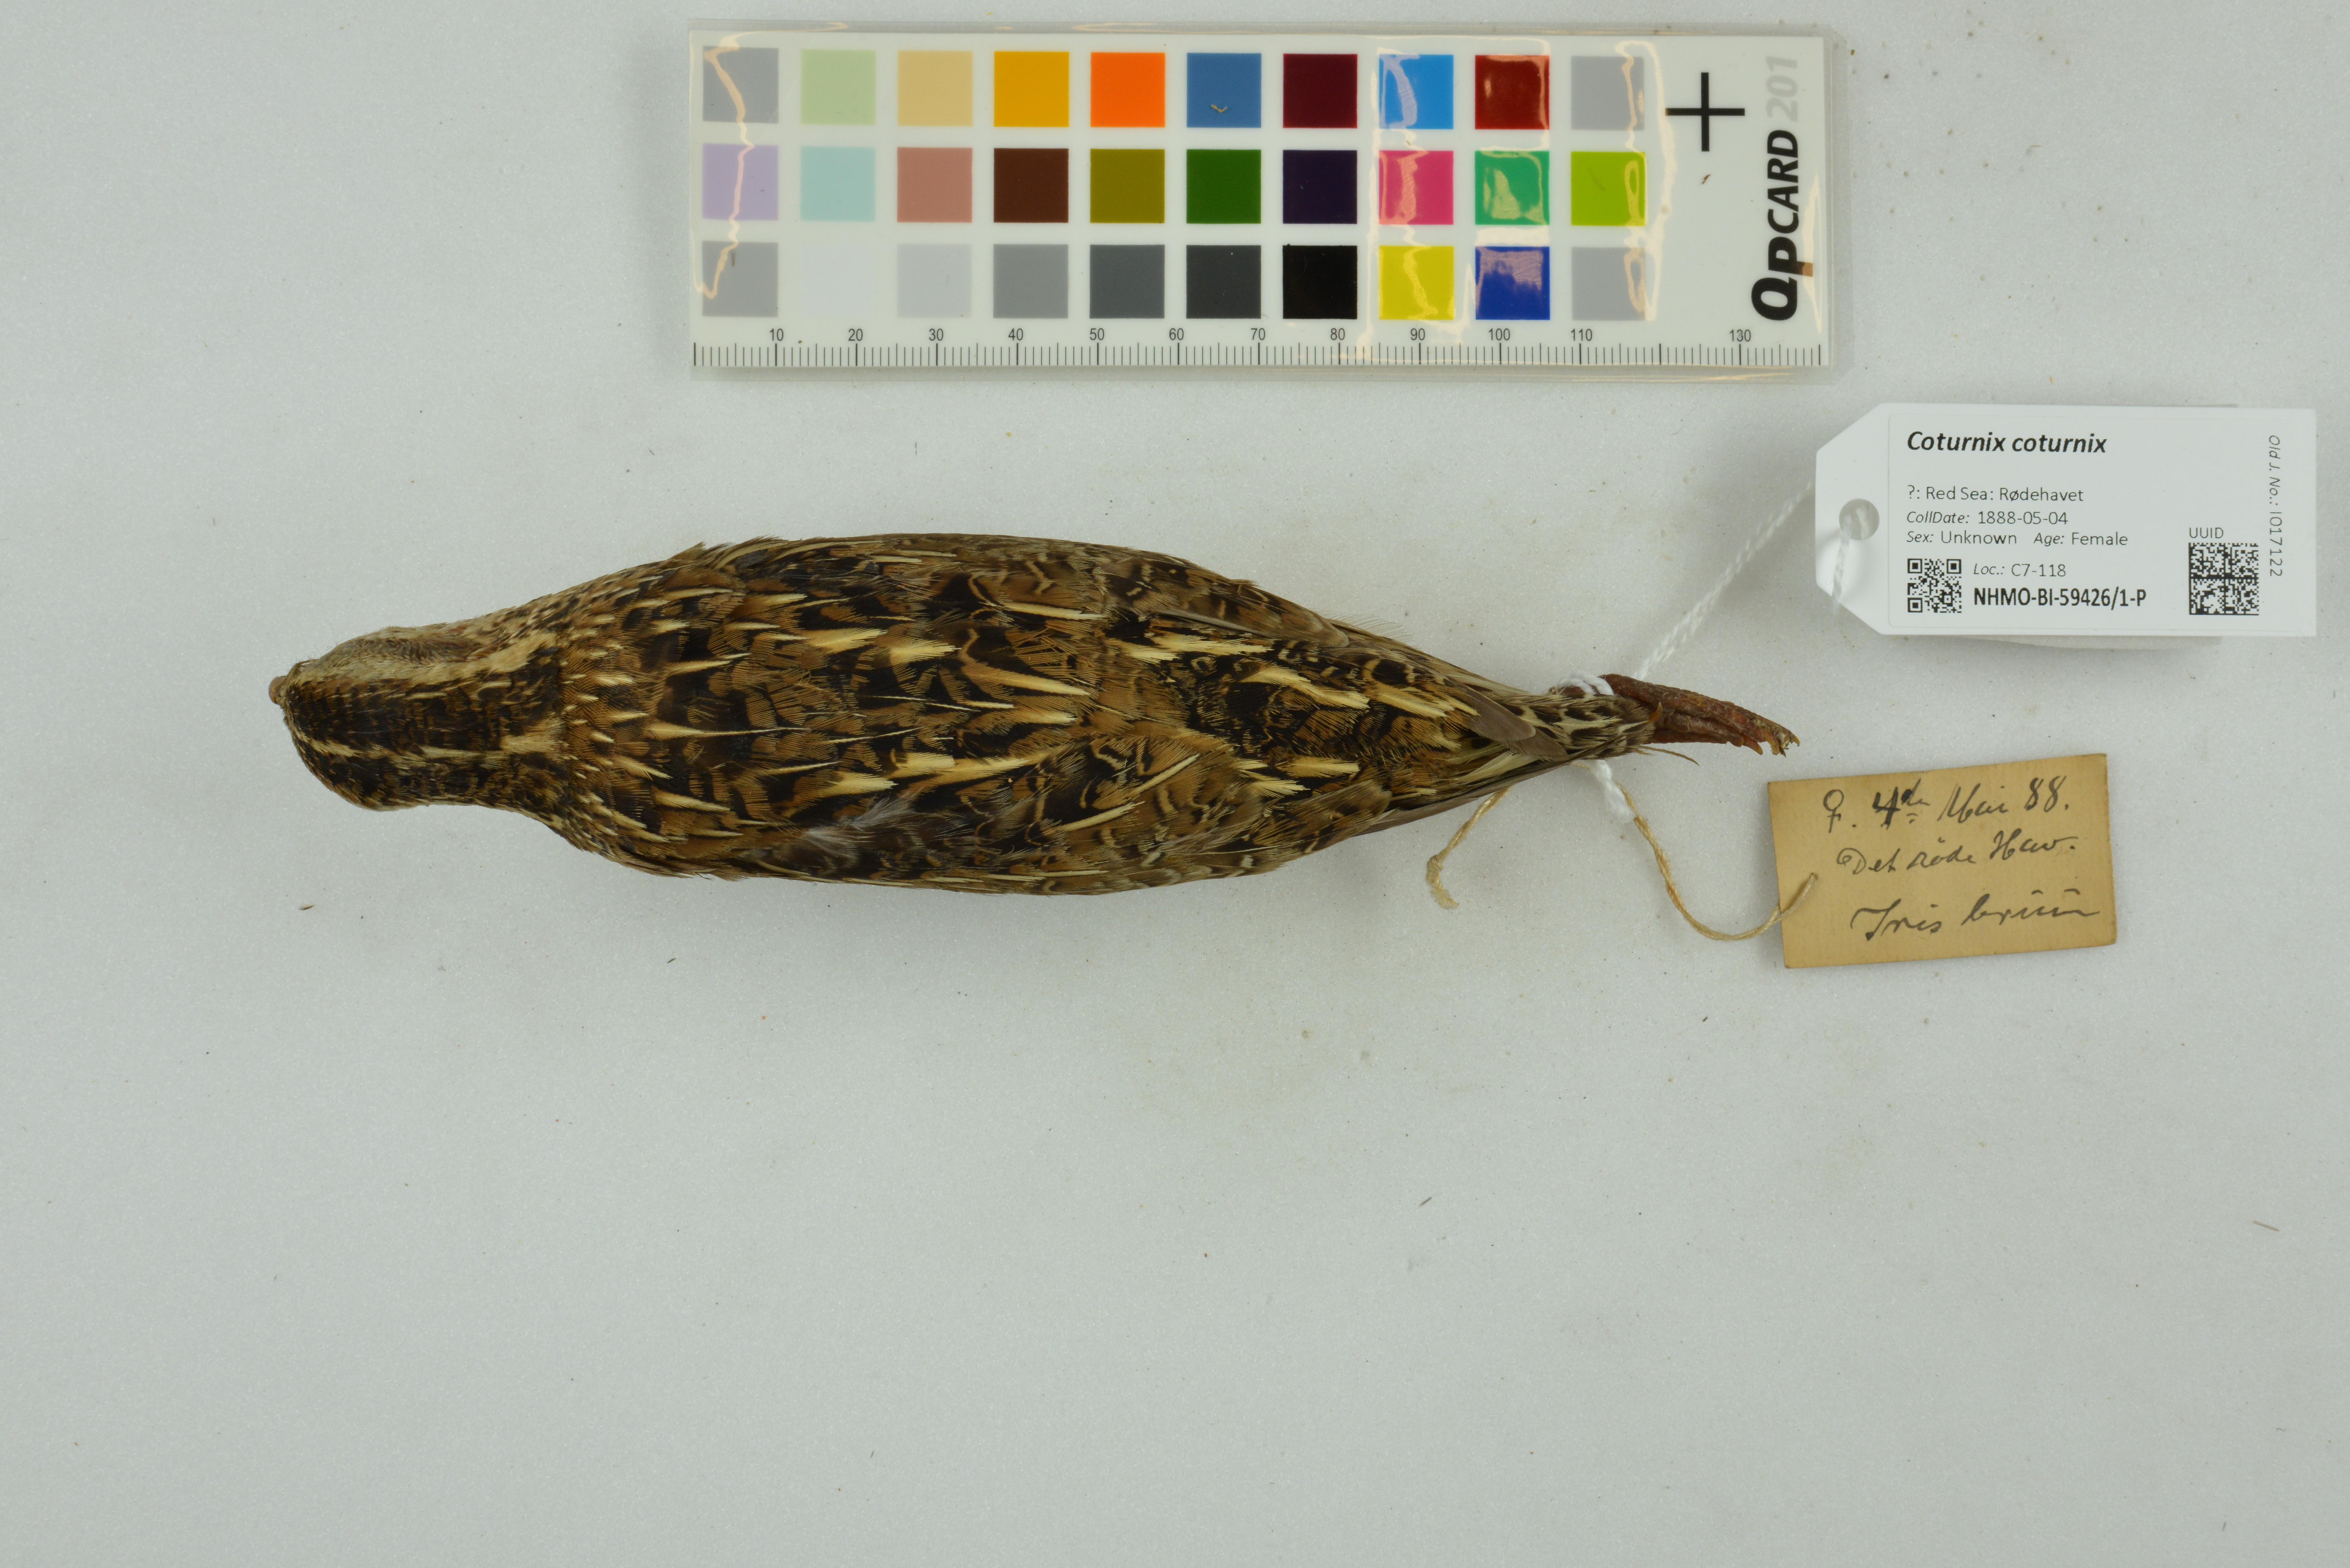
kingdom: Animalia
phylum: Chordata
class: Aves
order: Galliformes
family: Phasianidae
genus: Coturnix
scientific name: Coturnix coturnix
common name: Common quail
